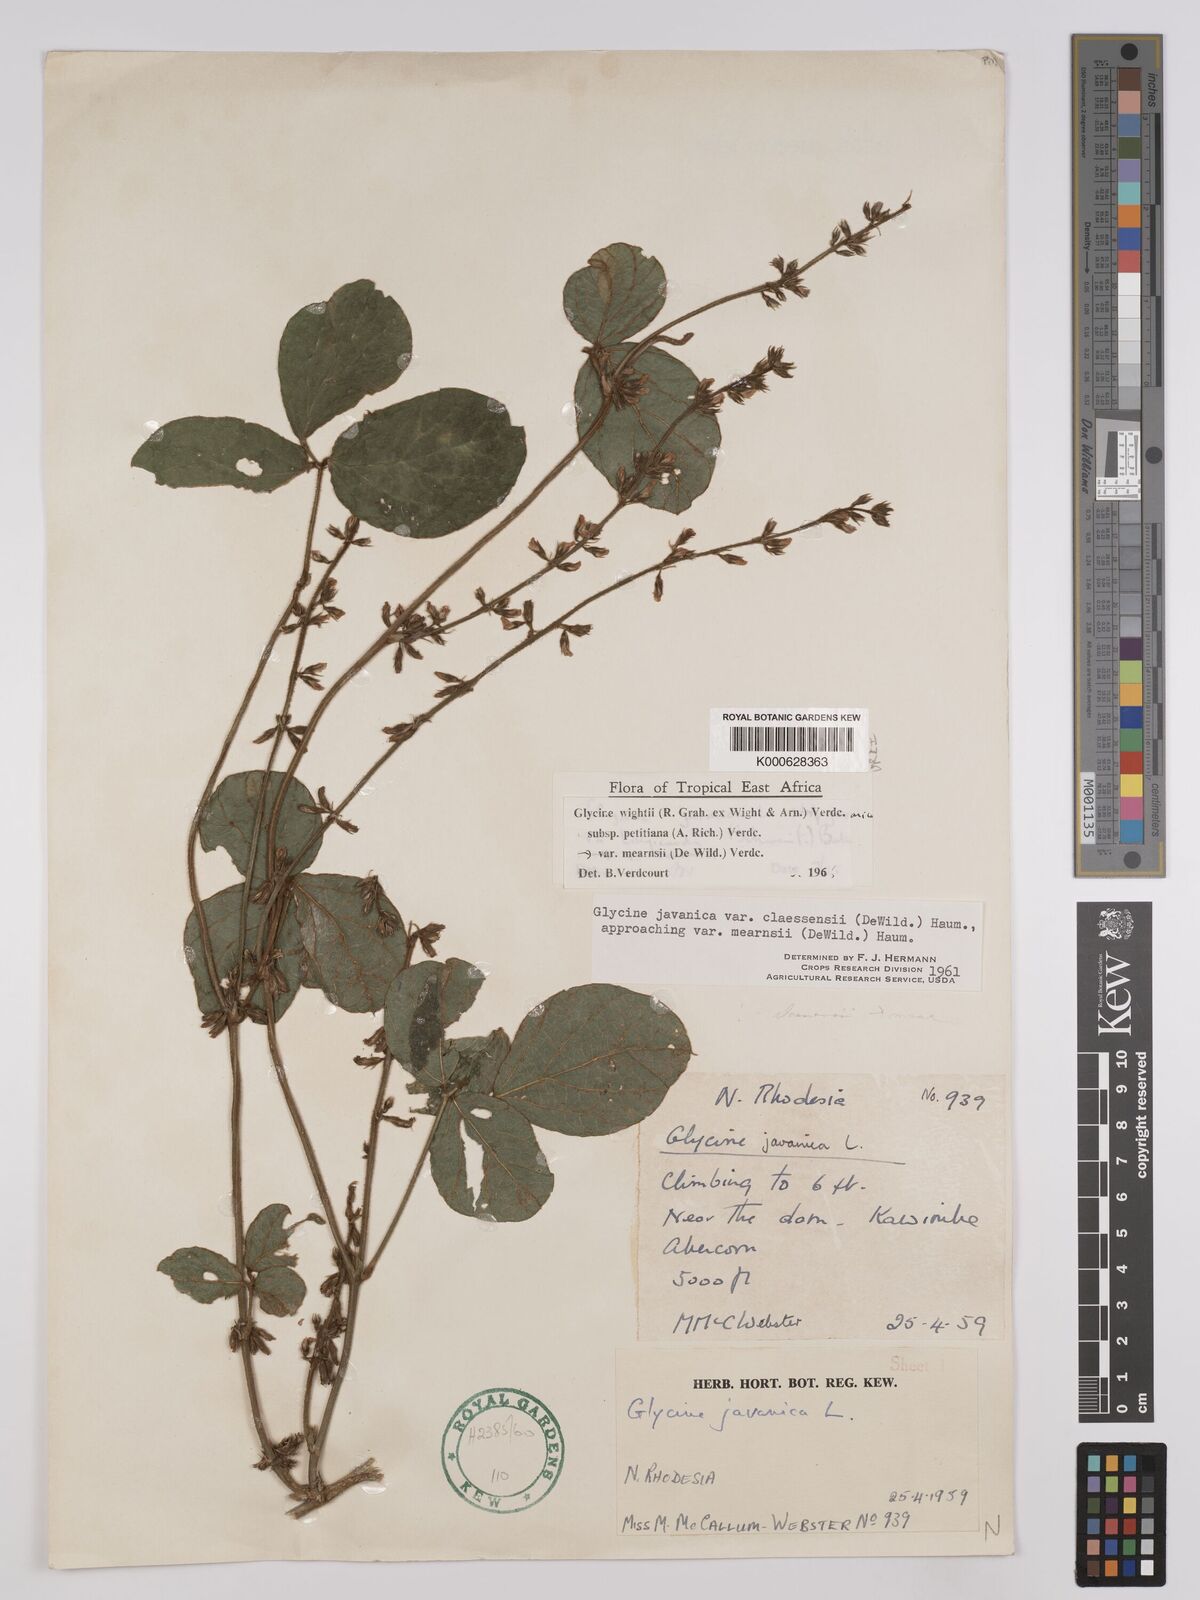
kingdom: Plantae
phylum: Tracheophyta
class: Magnoliopsida
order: Fabales
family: Fabaceae
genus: Glycine
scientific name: Glycine
